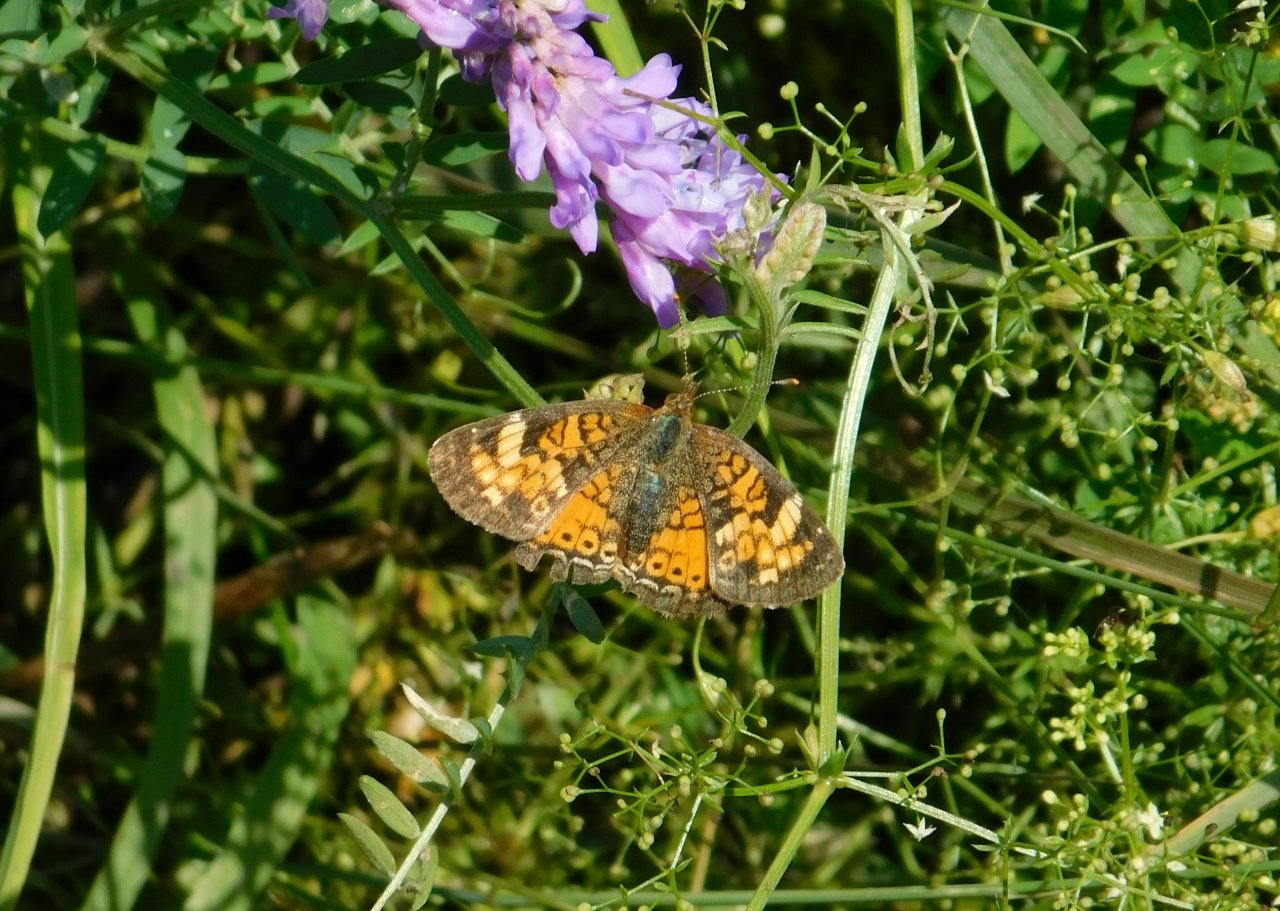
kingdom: Animalia
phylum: Arthropoda
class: Insecta
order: Lepidoptera
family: Nymphalidae
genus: Phyciodes
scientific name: Phyciodes tharos
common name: Northern Crescent
